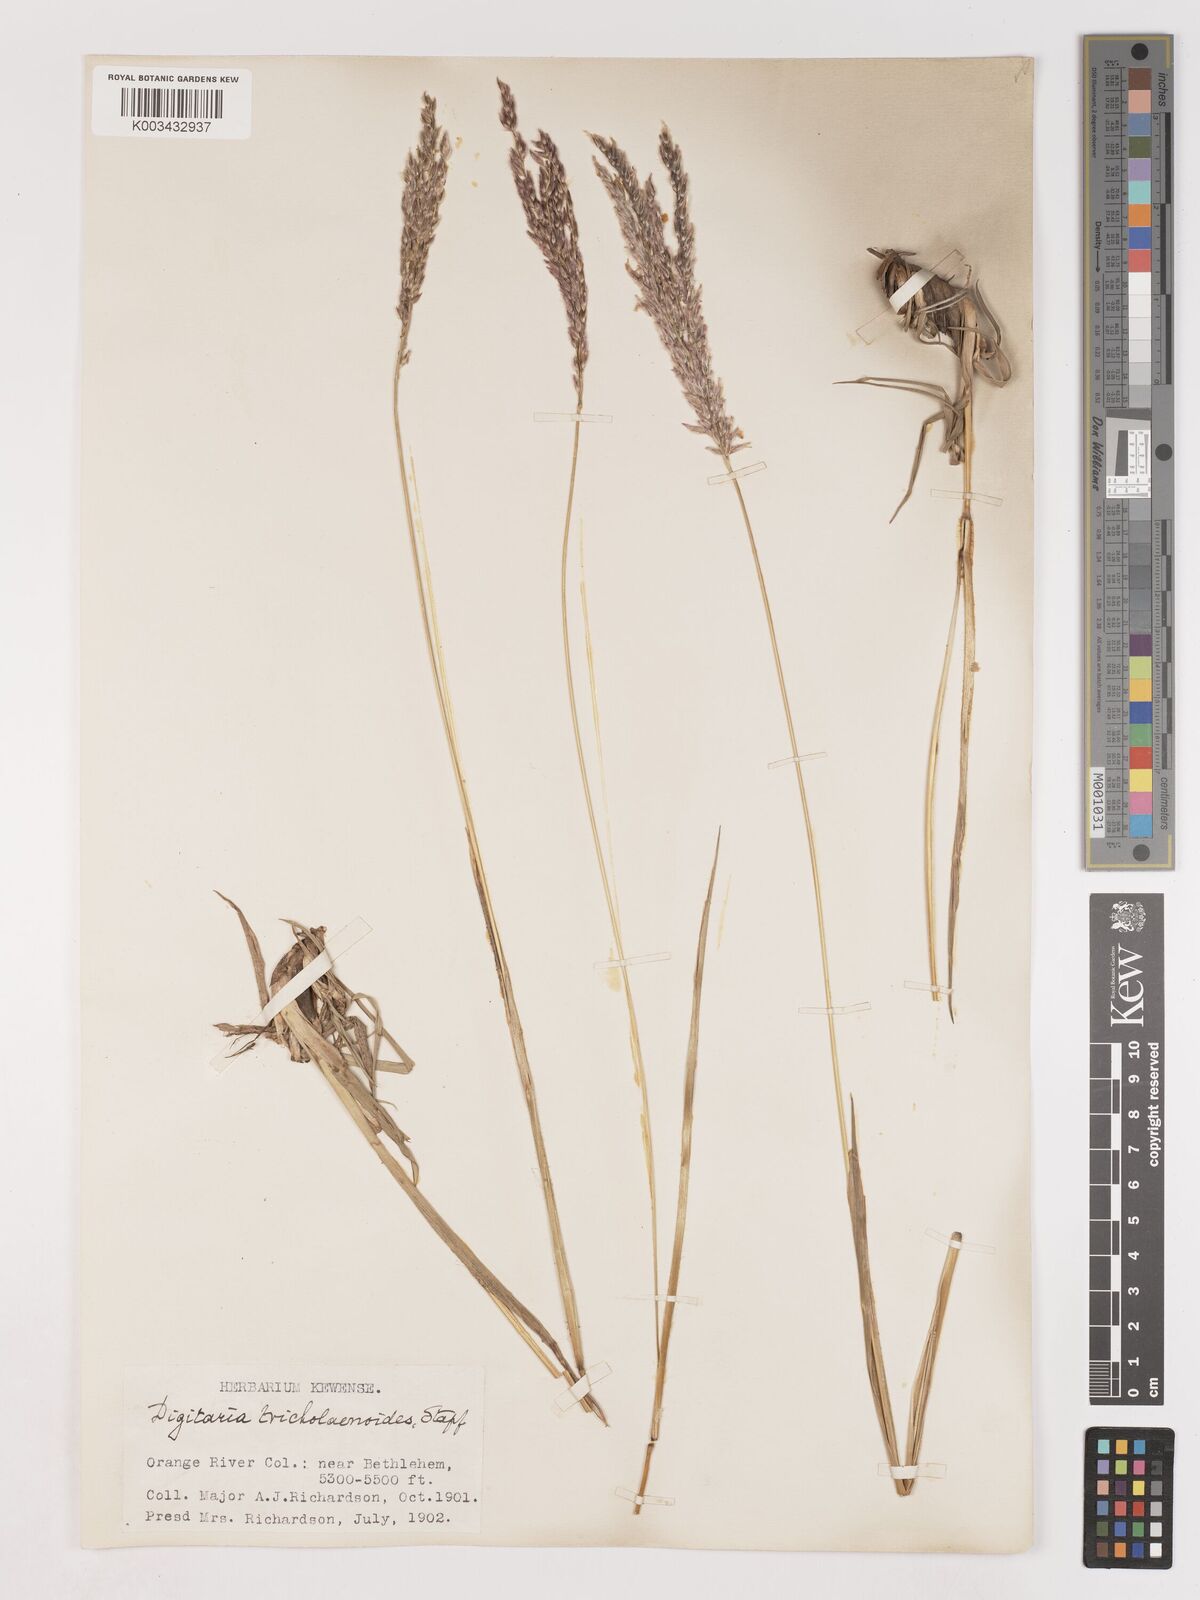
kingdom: Plantae
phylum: Tracheophyta
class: Liliopsida
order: Poales
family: Poaceae
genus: Digitaria
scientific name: Digitaria tricholaenoides
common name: Purple finger grass
